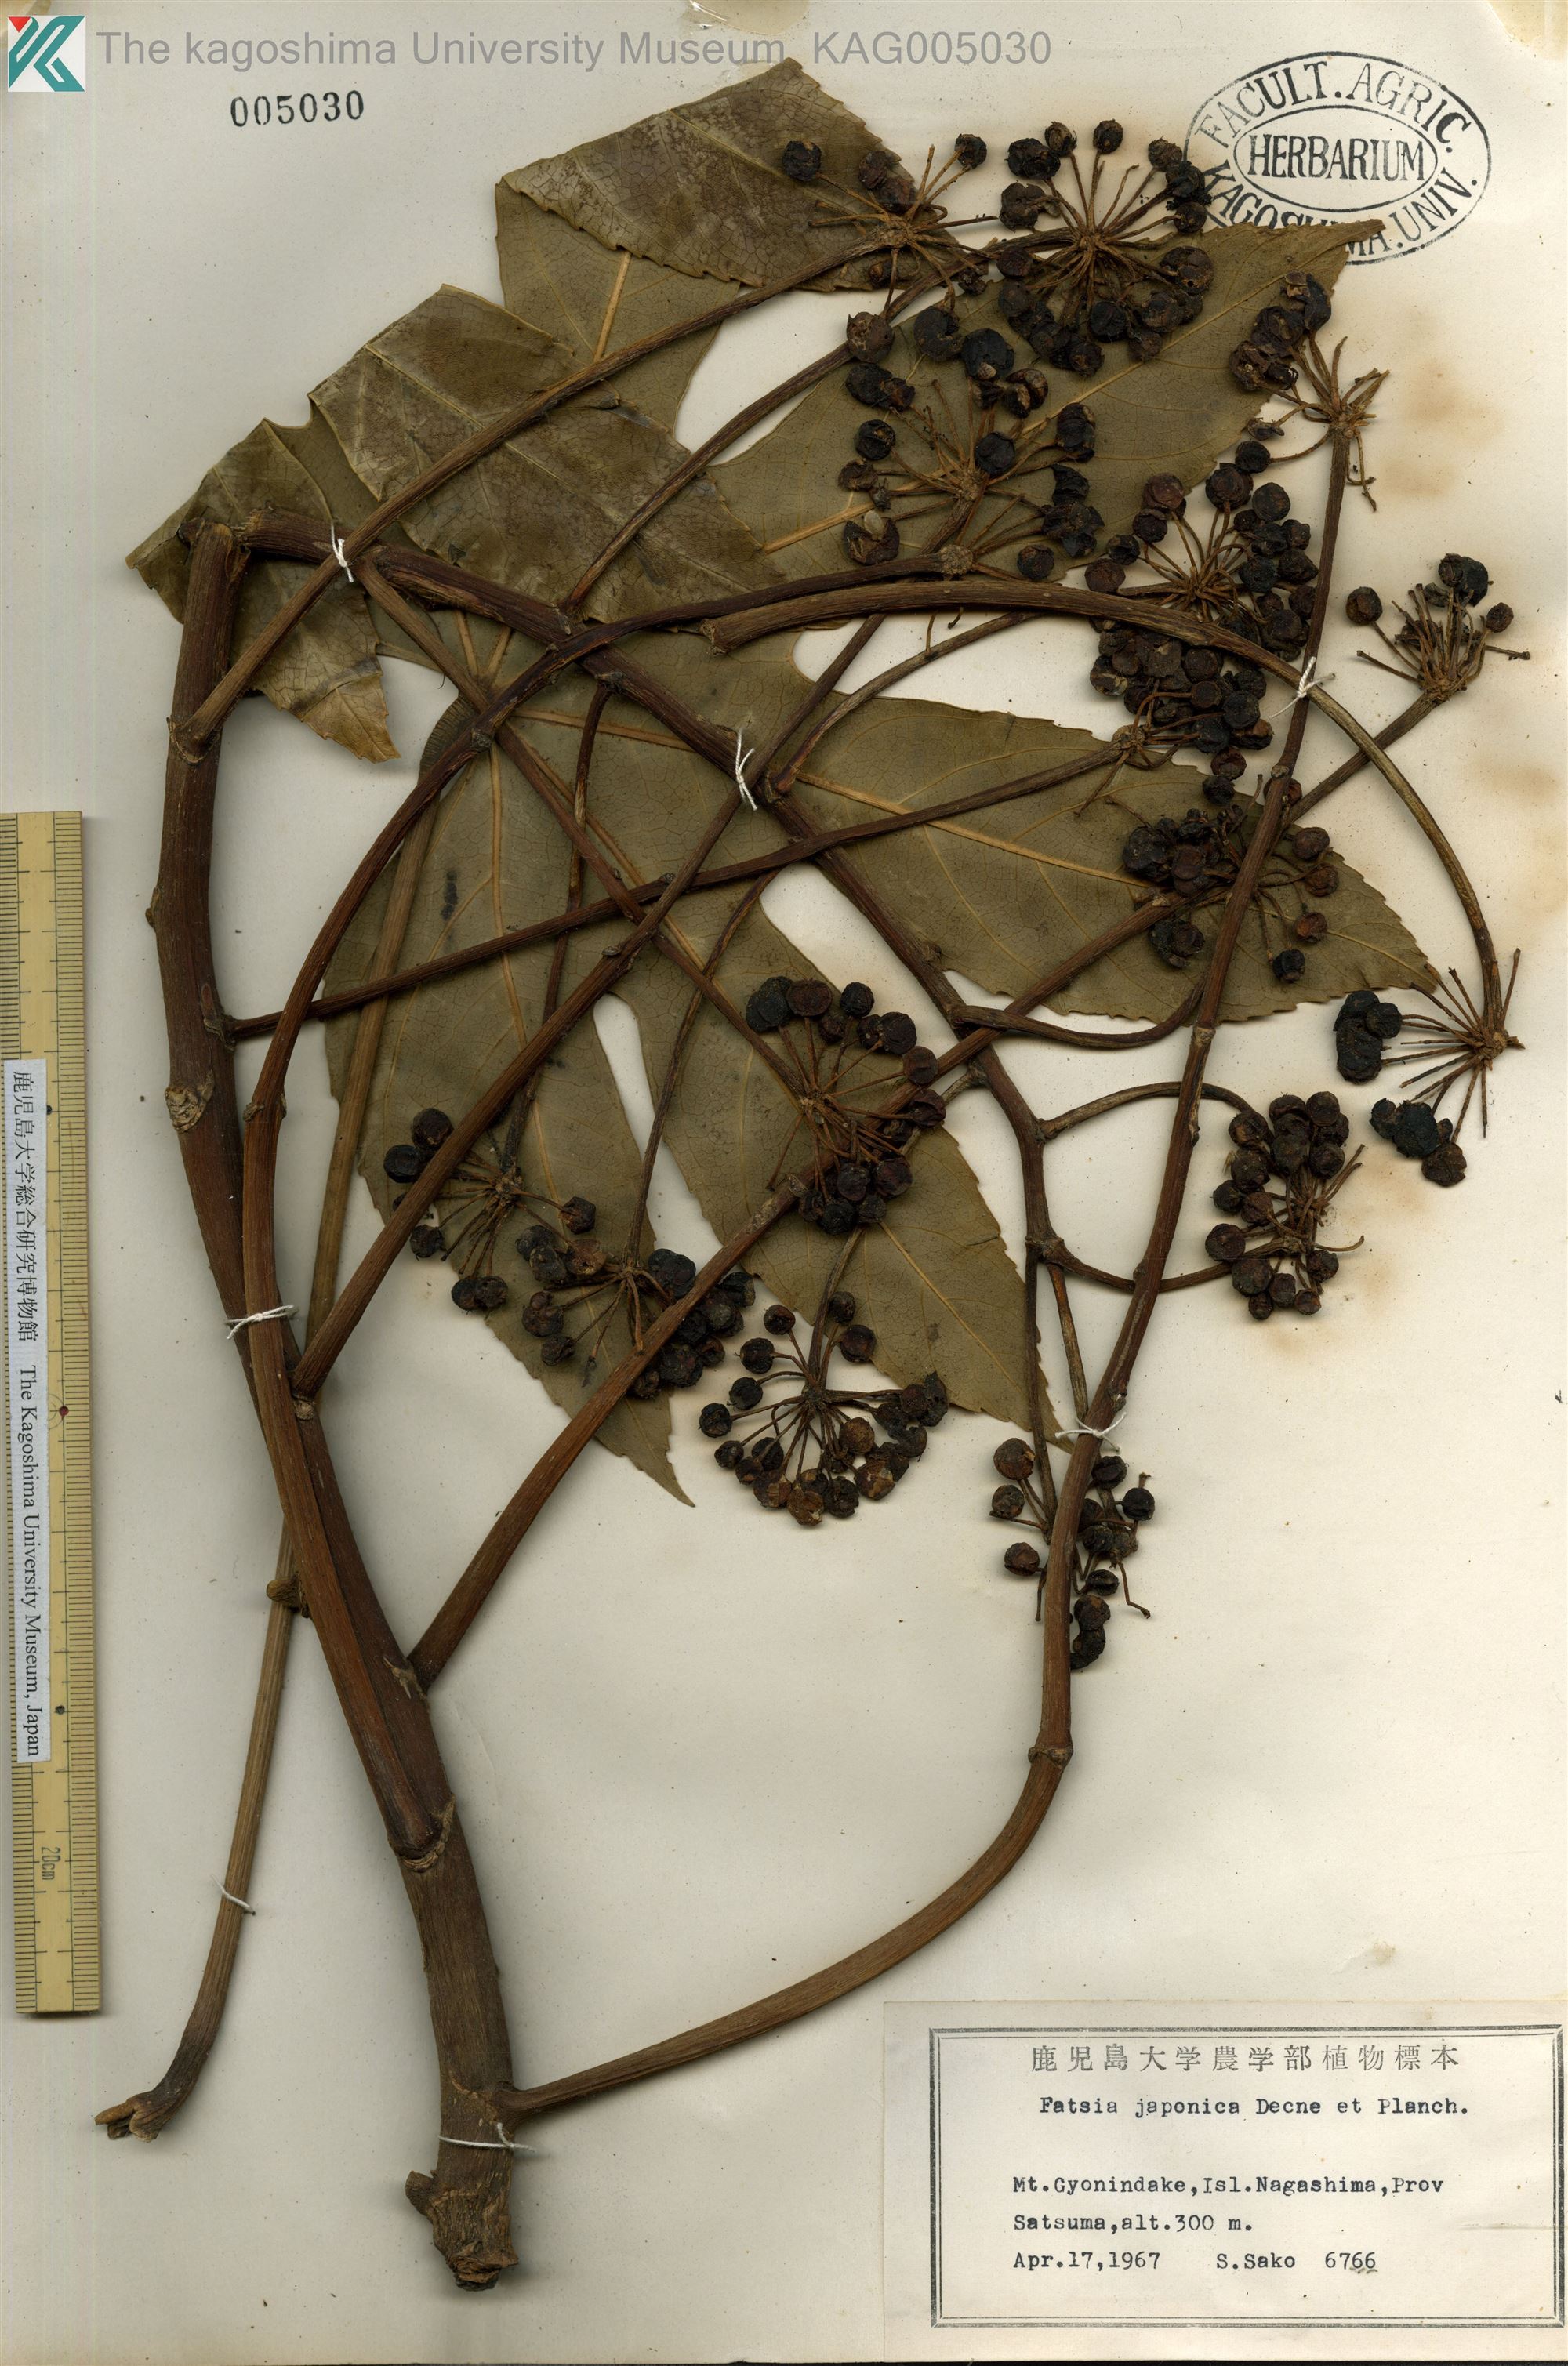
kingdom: Plantae
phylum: Tracheophyta
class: Magnoliopsida
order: Apiales
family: Araliaceae
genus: Fatsia
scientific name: Fatsia japonica
